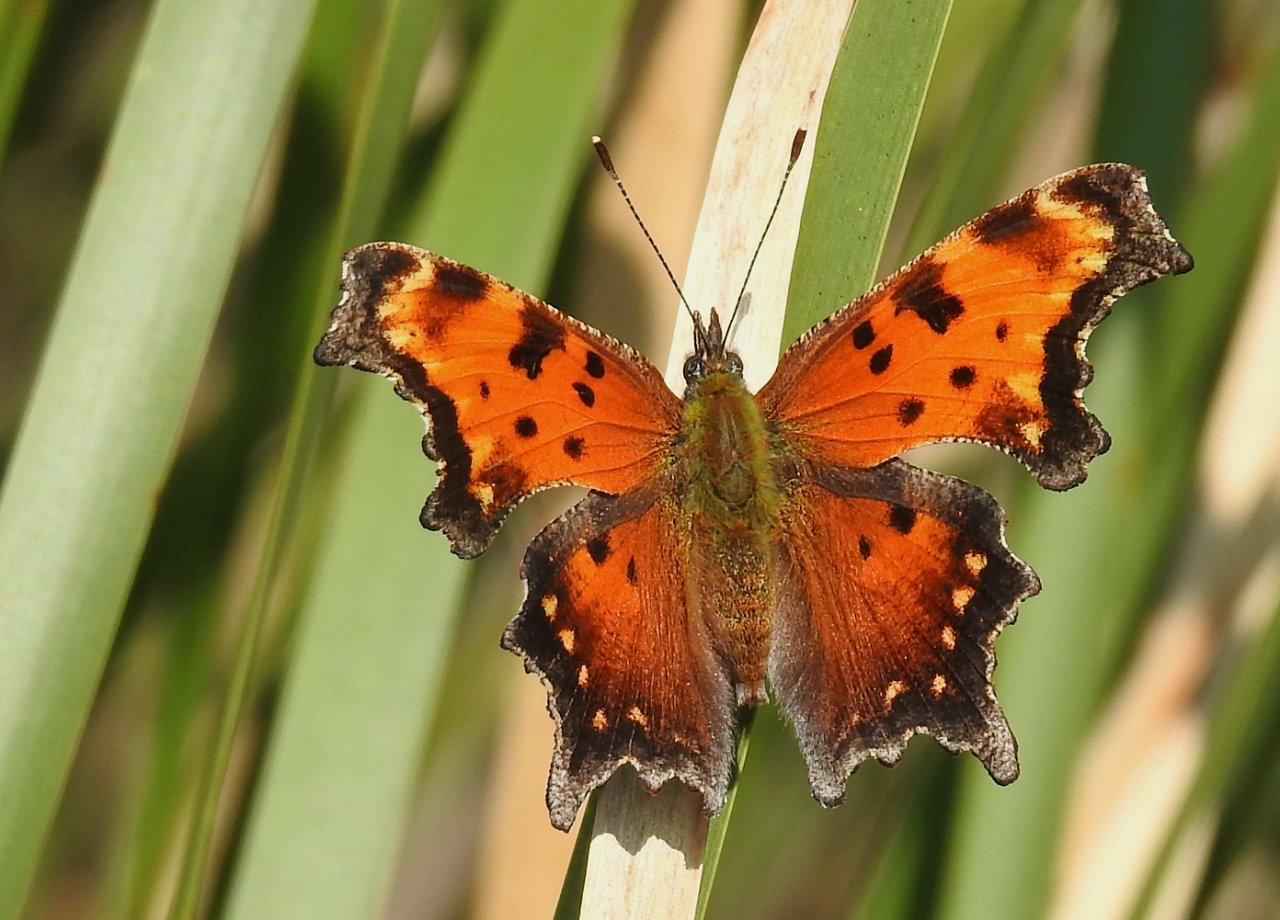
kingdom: Animalia
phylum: Arthropoda
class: Insecta
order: Lepidoptera
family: Nymphalidae
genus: Polygonia
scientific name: Polygonia progne
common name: Gray Comma
